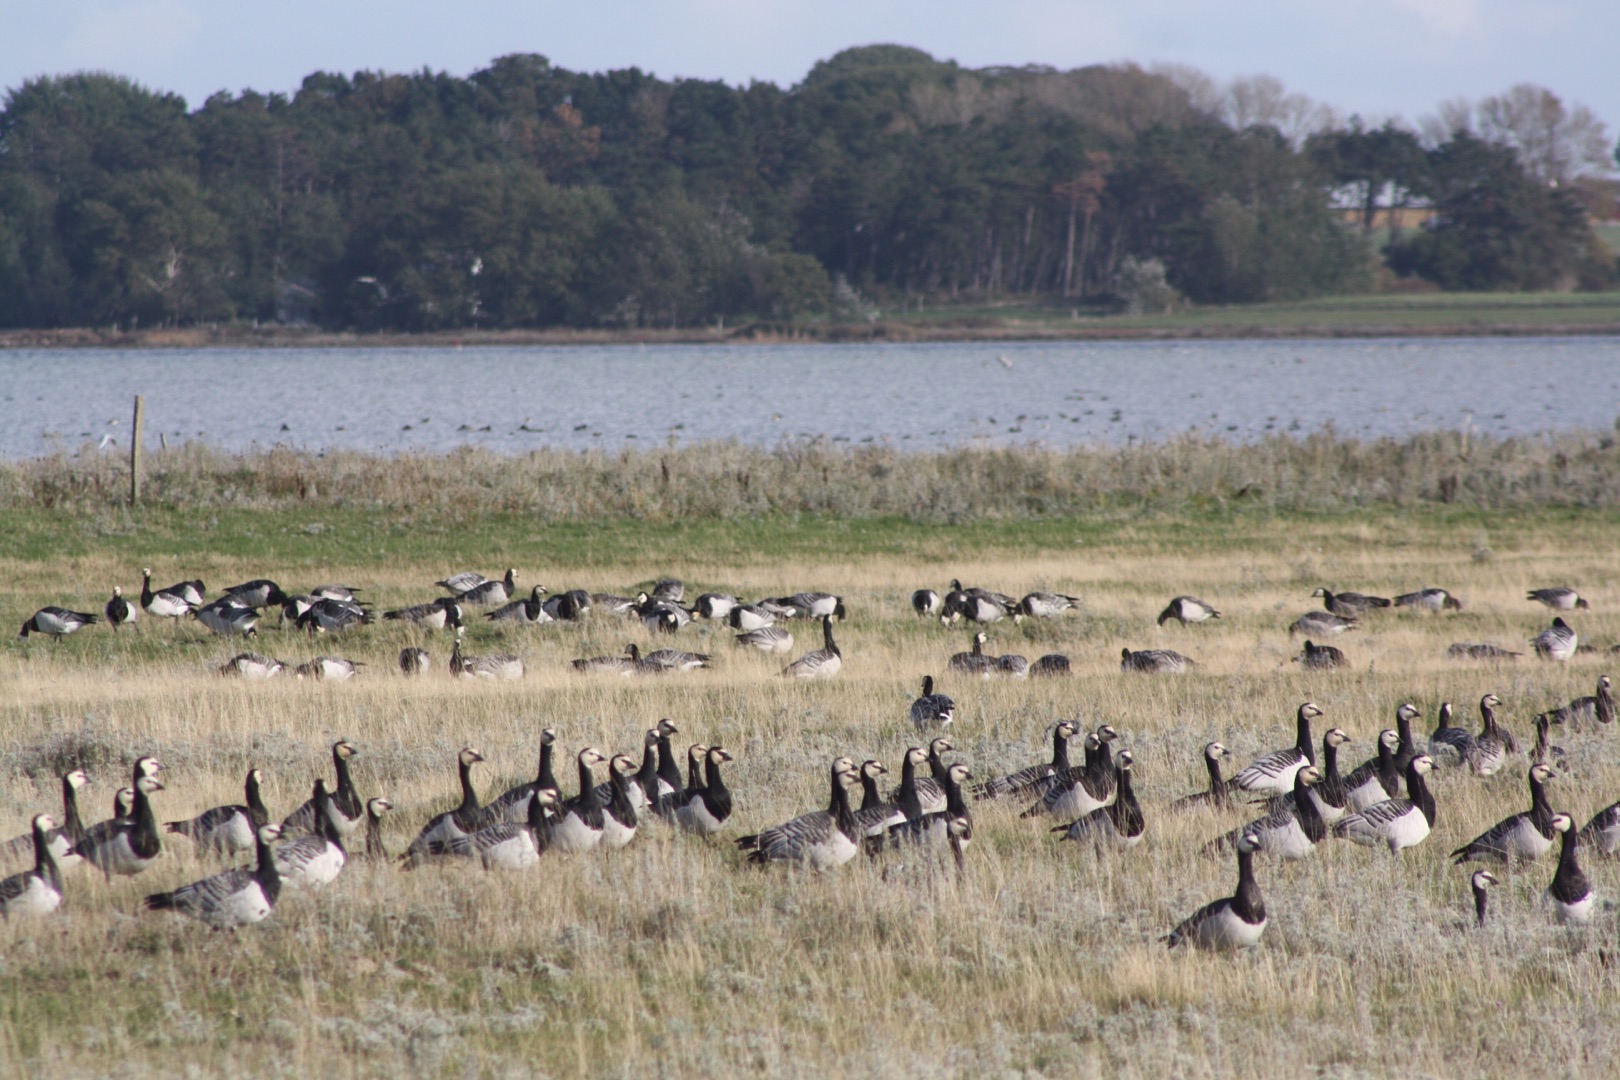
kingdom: Animalia
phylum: Chordata
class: Aves
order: Anseriformes
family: Anatidae
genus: Branta
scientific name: Branta leucopsis
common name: Bramgås
